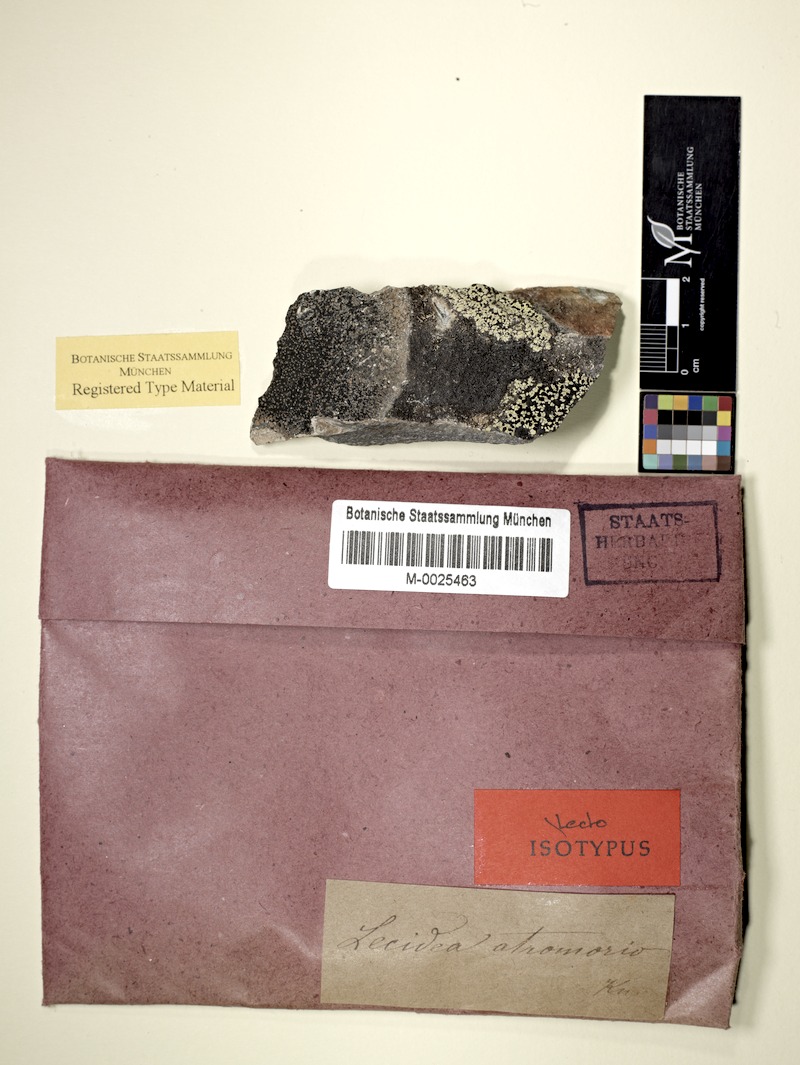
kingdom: Fungi
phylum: Ascomycota
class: Lecanoromycetes
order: Lecideales
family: Lecideaceae
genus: Lecidea
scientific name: Lecidea atromorio
